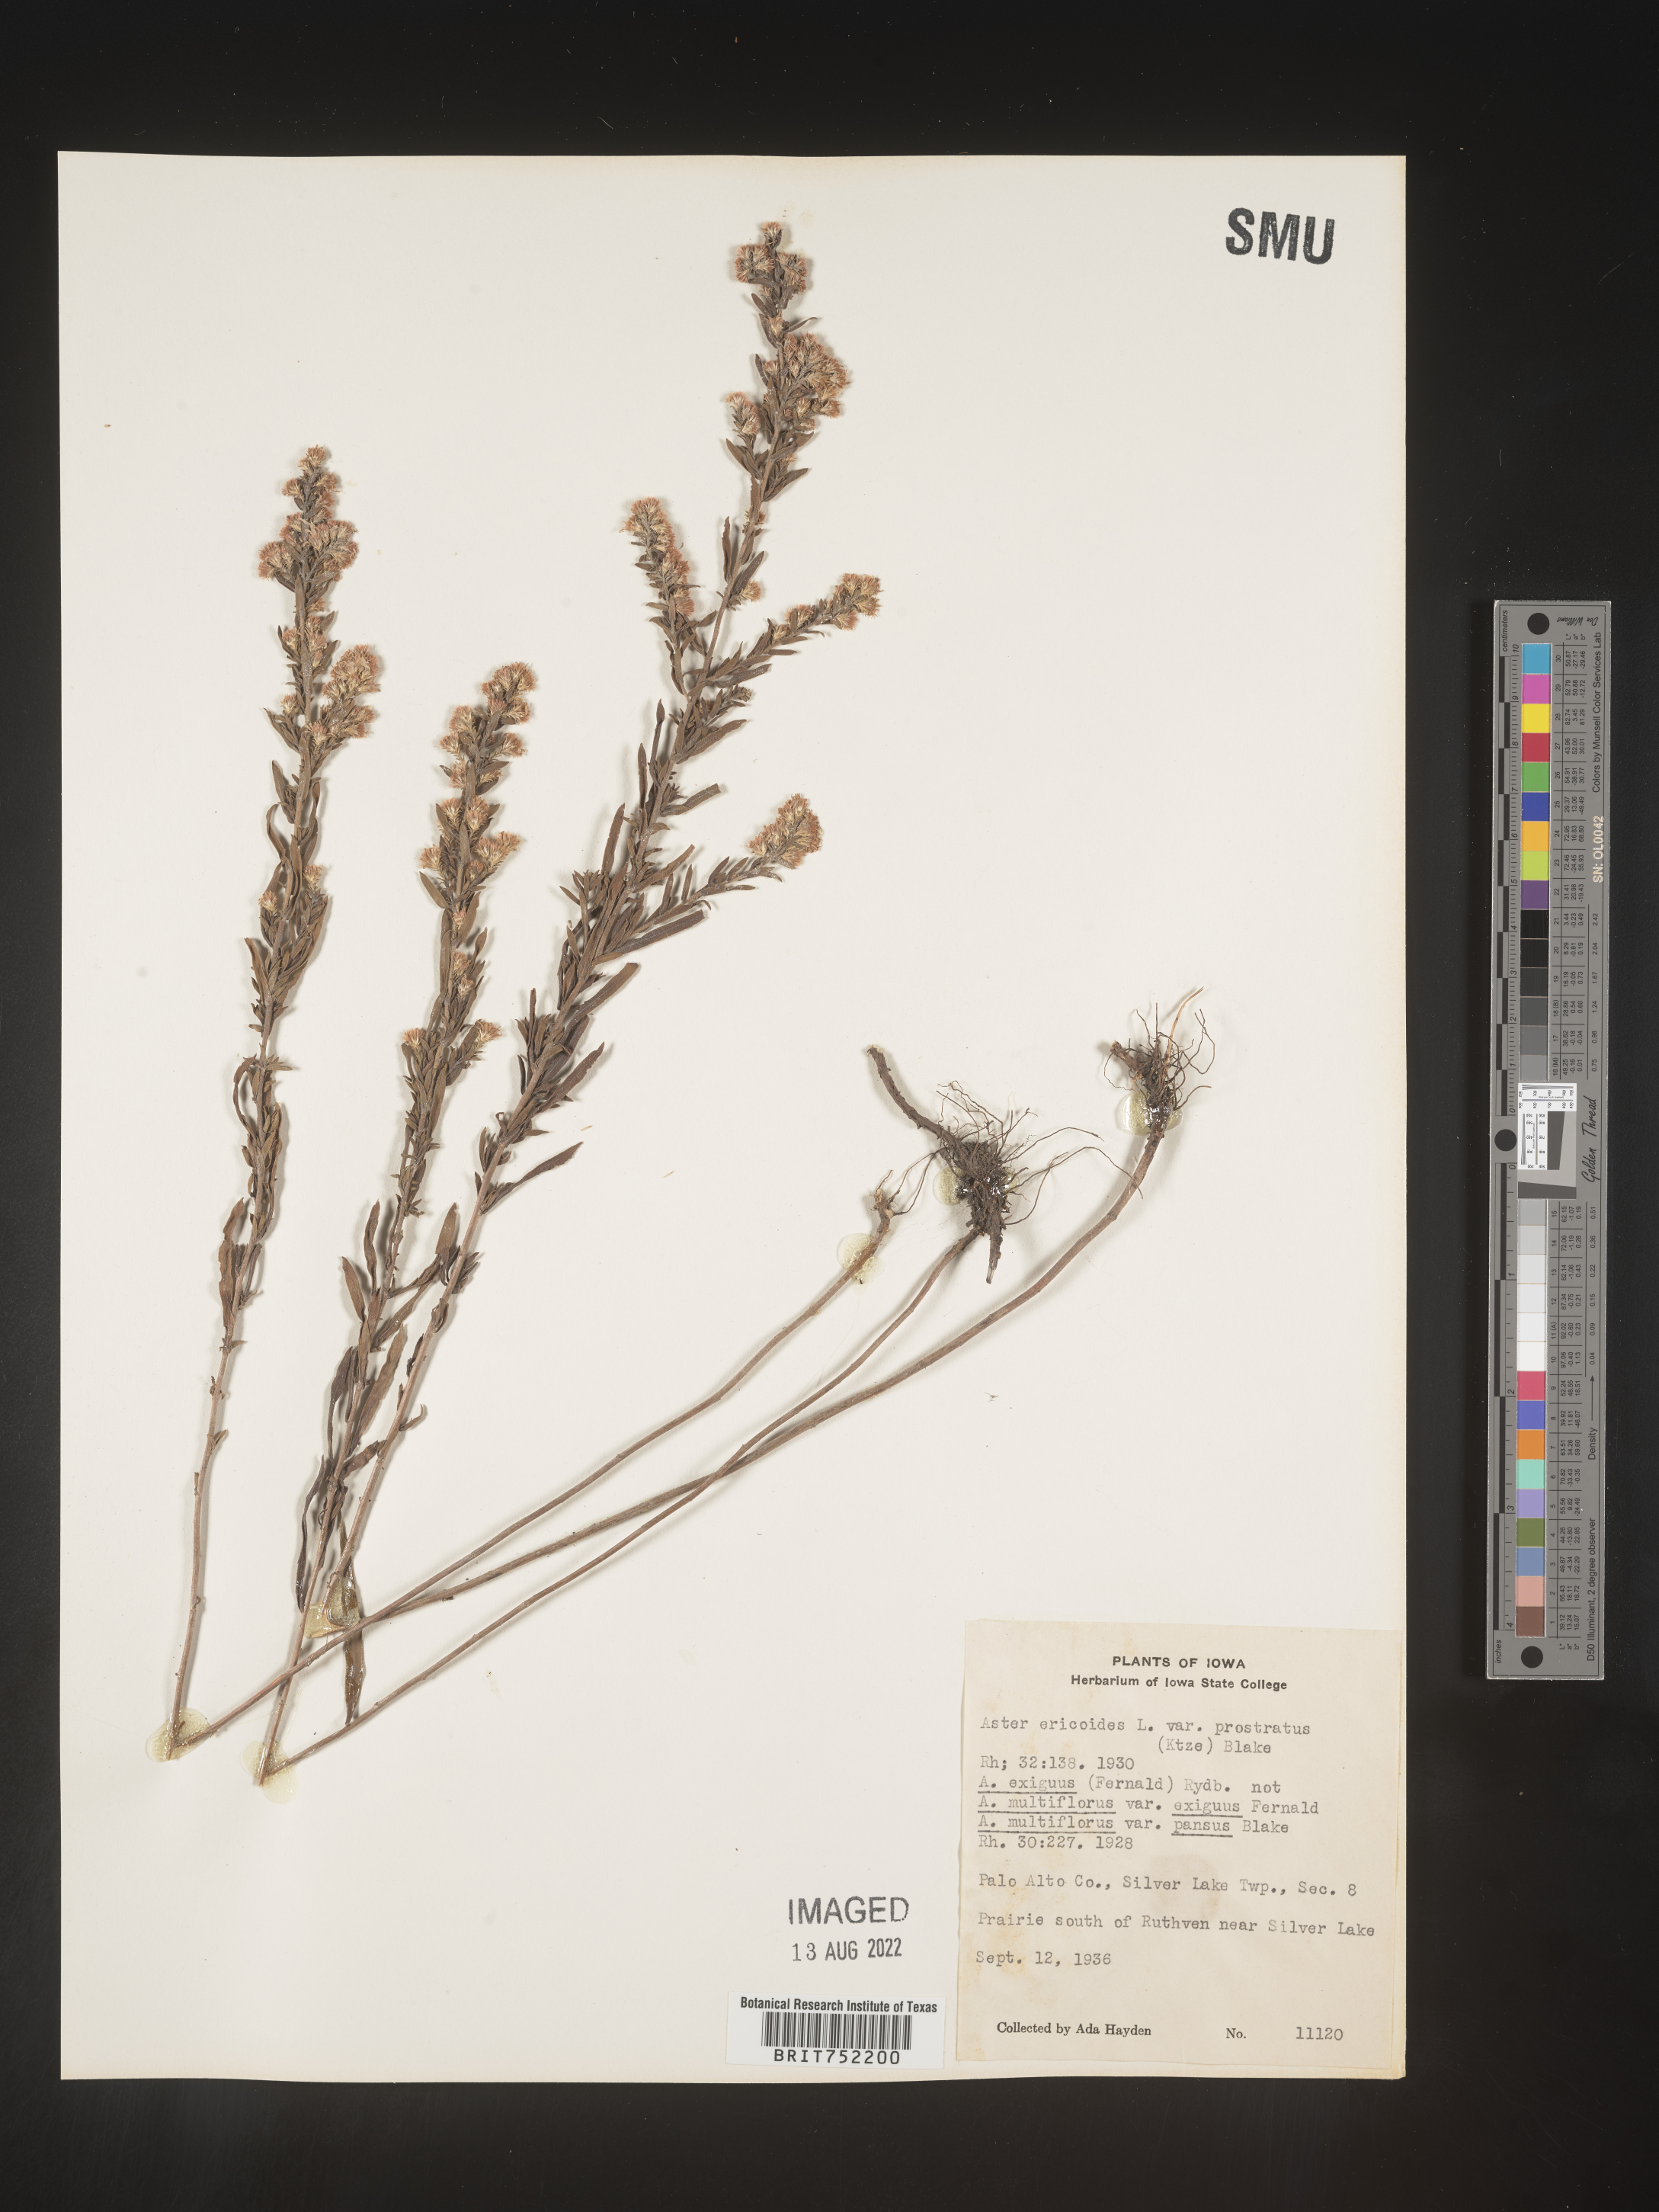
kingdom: Plantae
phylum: Tracheophyta
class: Magnoliopsida
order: Asterales
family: Asteraceae
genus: Symphyotrichum
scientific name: Symphyotrichum ericoides
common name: Heath aster
